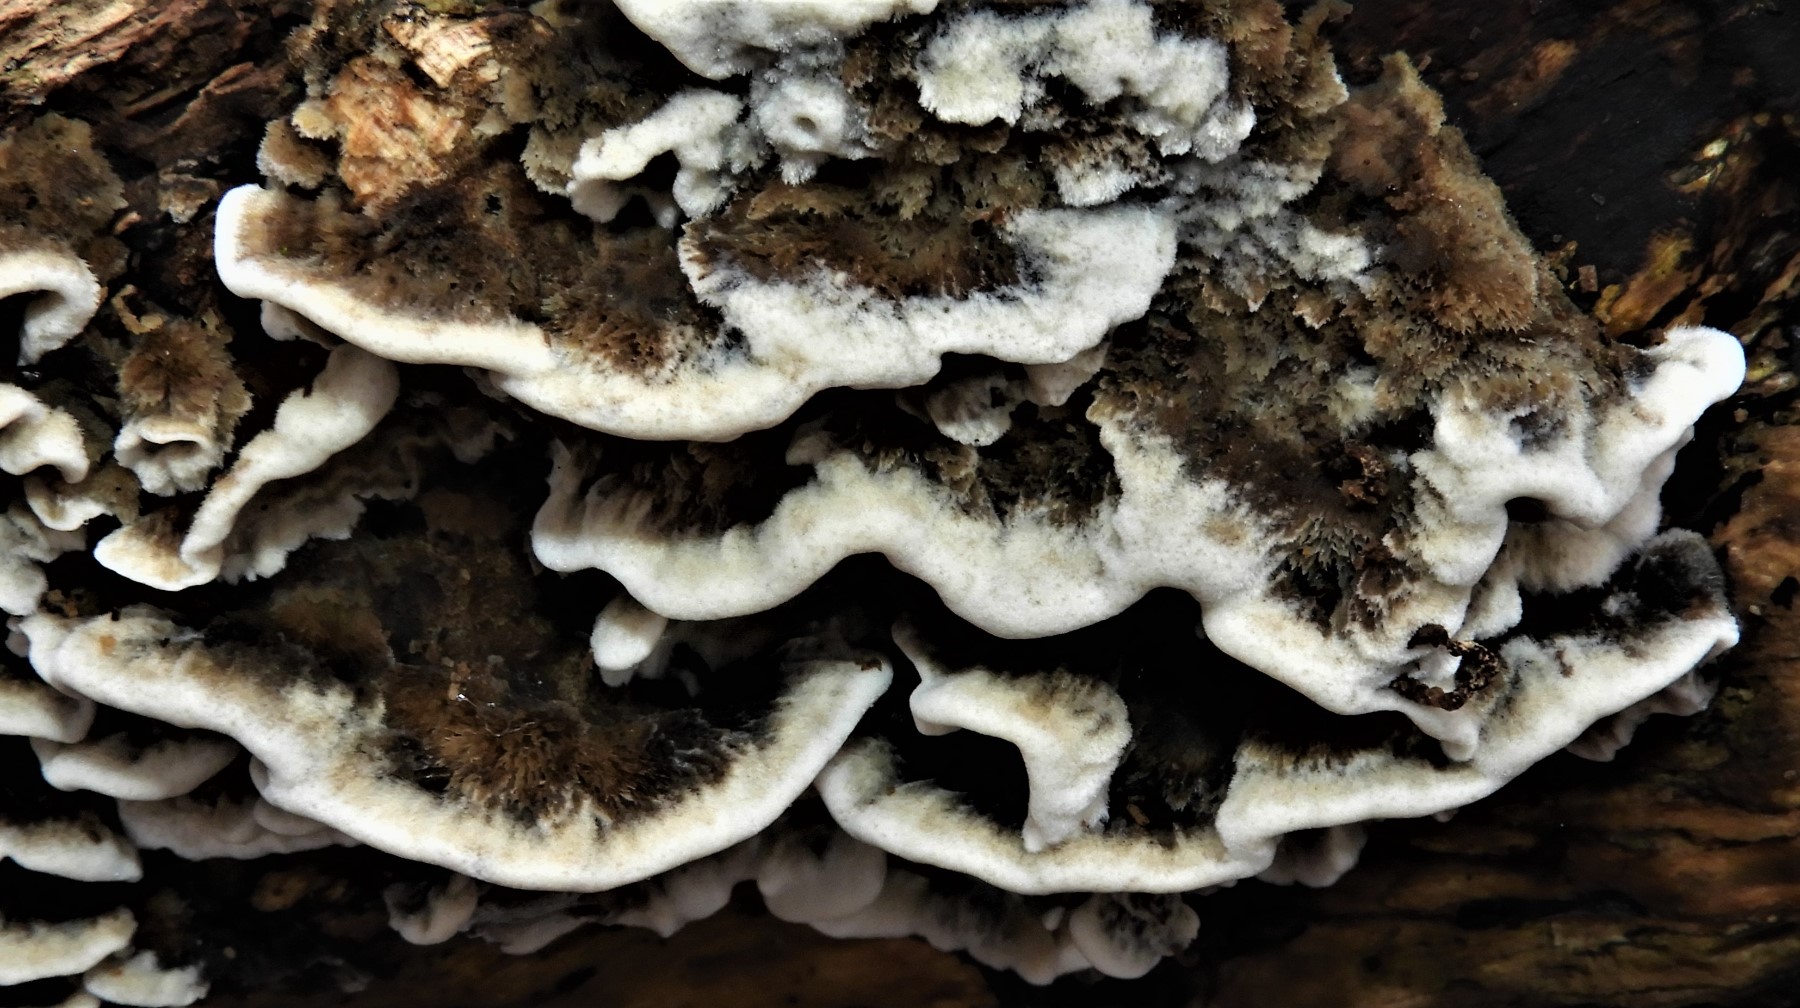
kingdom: Fungi
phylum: Basidiomycota
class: Agaricomycetes
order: Polyporales
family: Phanerochaetaceae
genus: Bjerkandera
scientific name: Bjerkandera adusta
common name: sveden sodporesvamp
